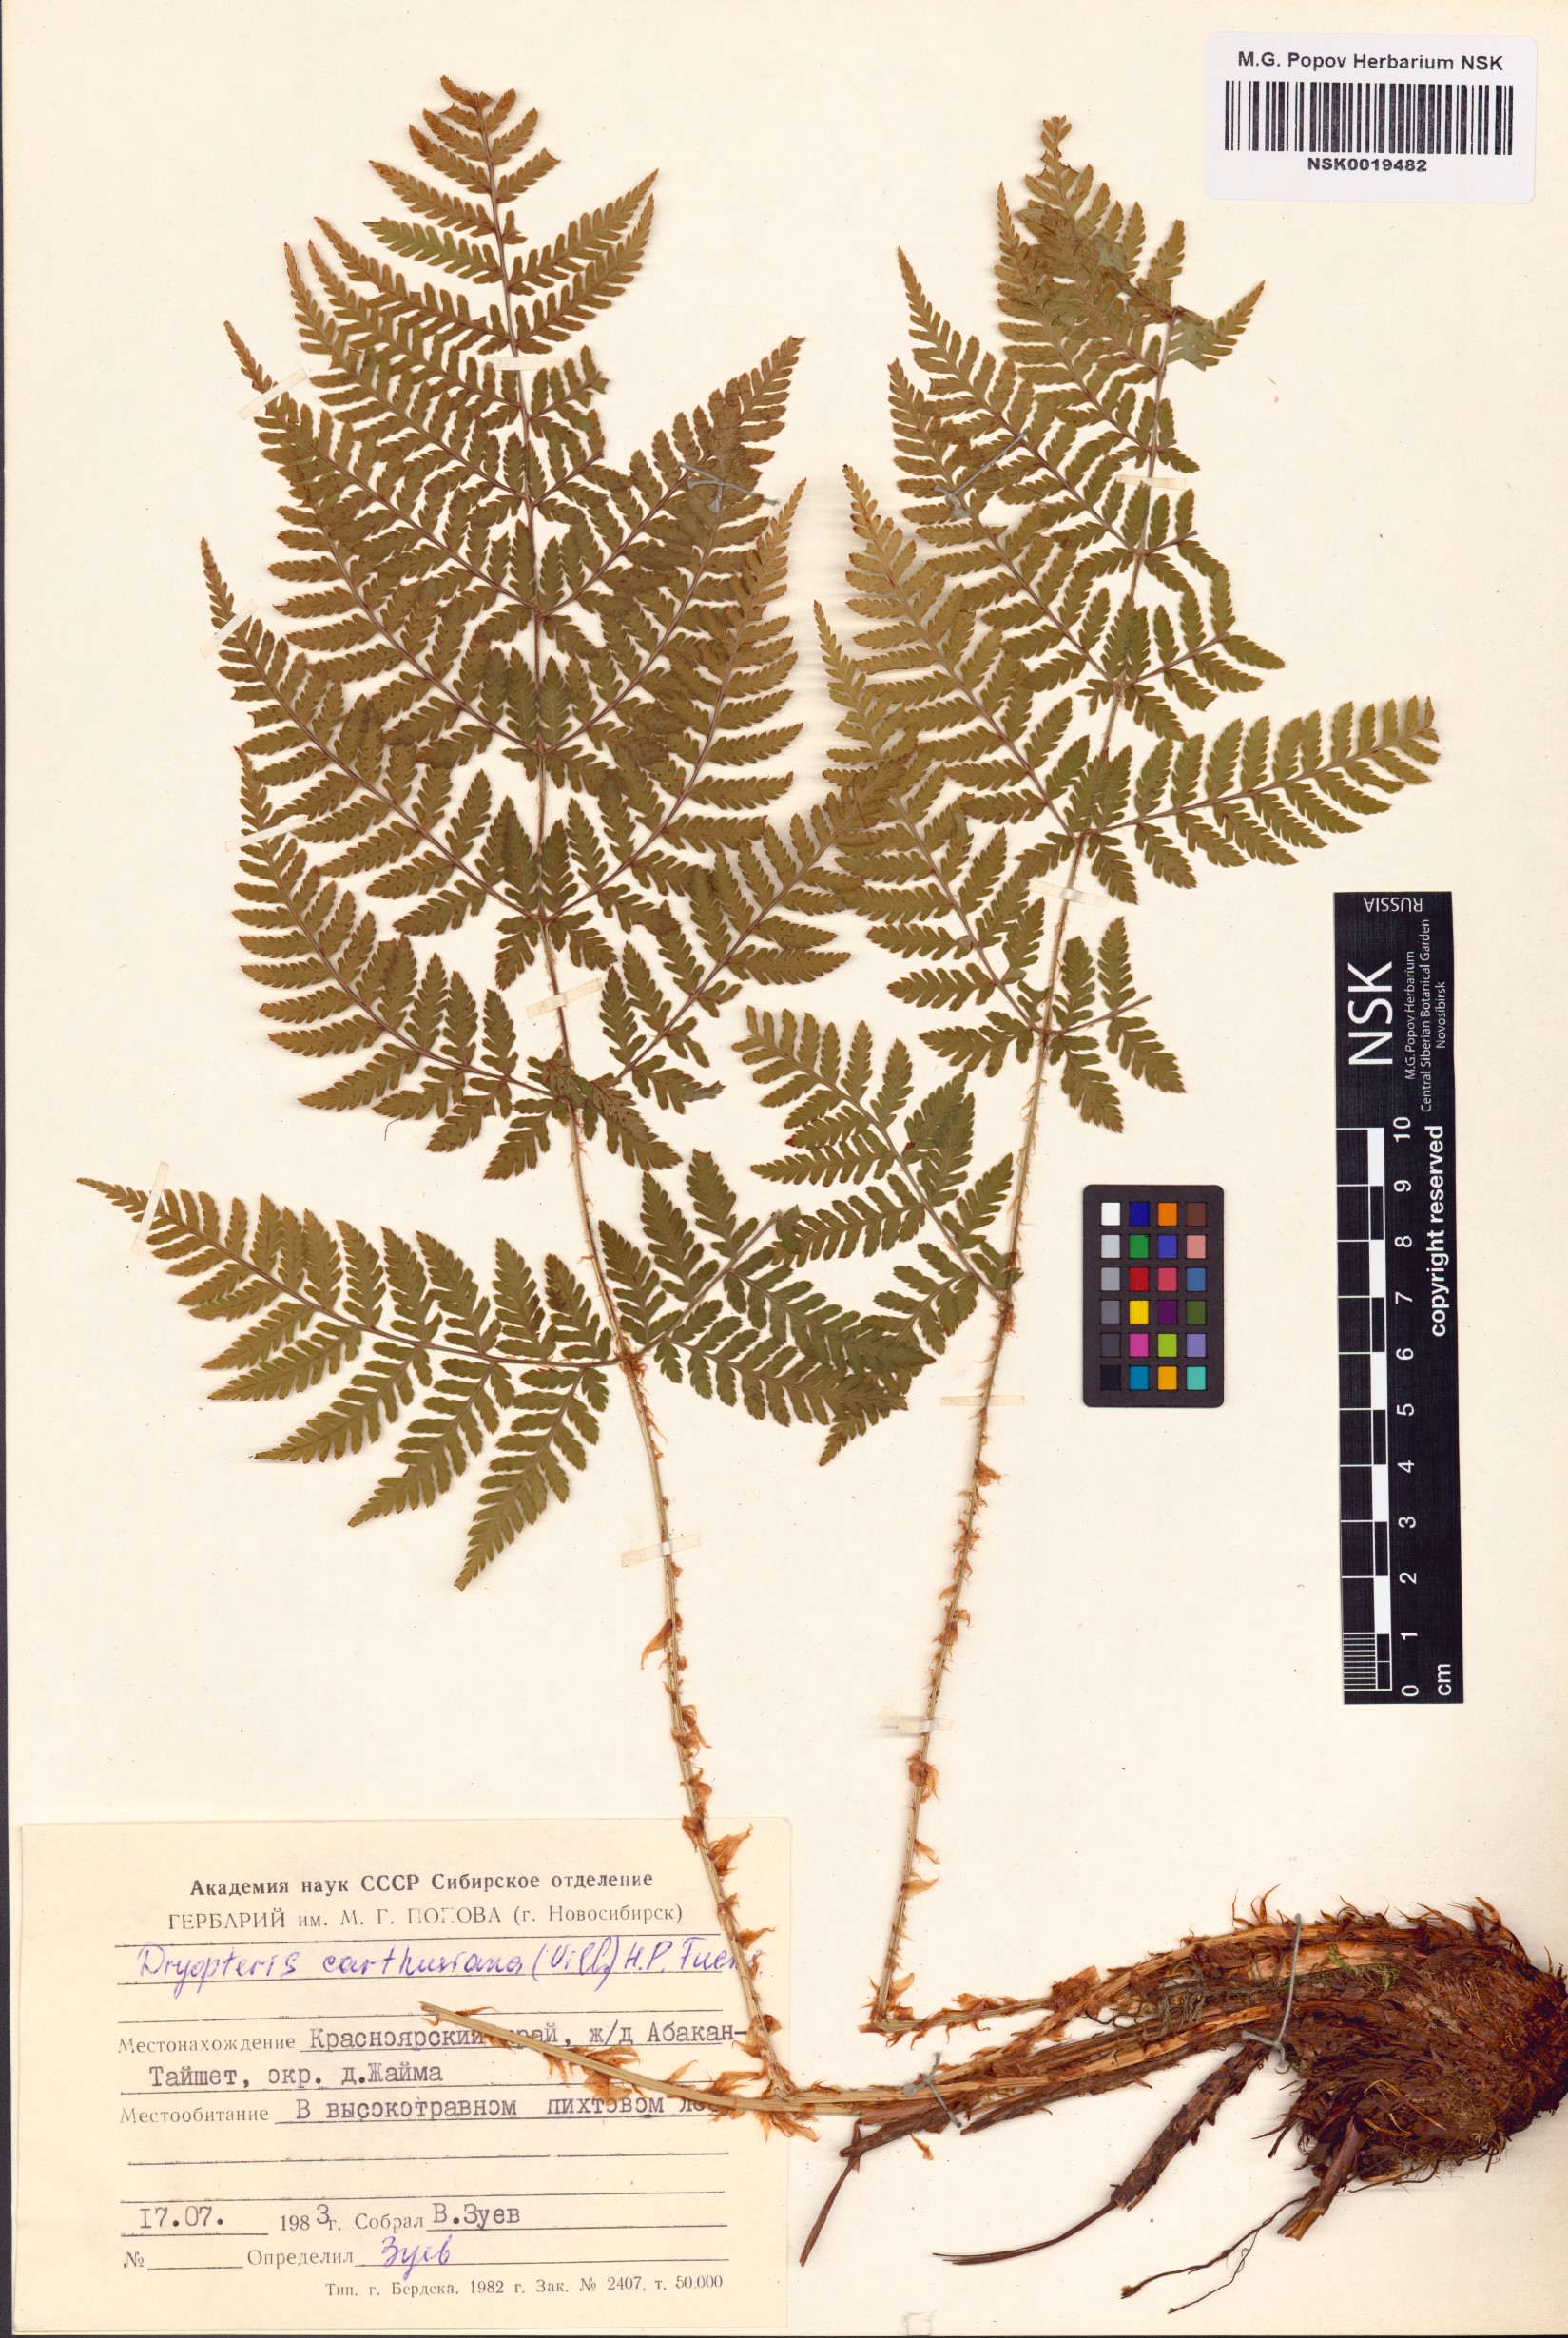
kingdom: Plantae
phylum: Tracheophyta
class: Polypodiopsida
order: Polypodiales
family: Dryopteridaceae
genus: Dryopteris
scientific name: Dryopteris carthusiana
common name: Narrow buckler-fern
